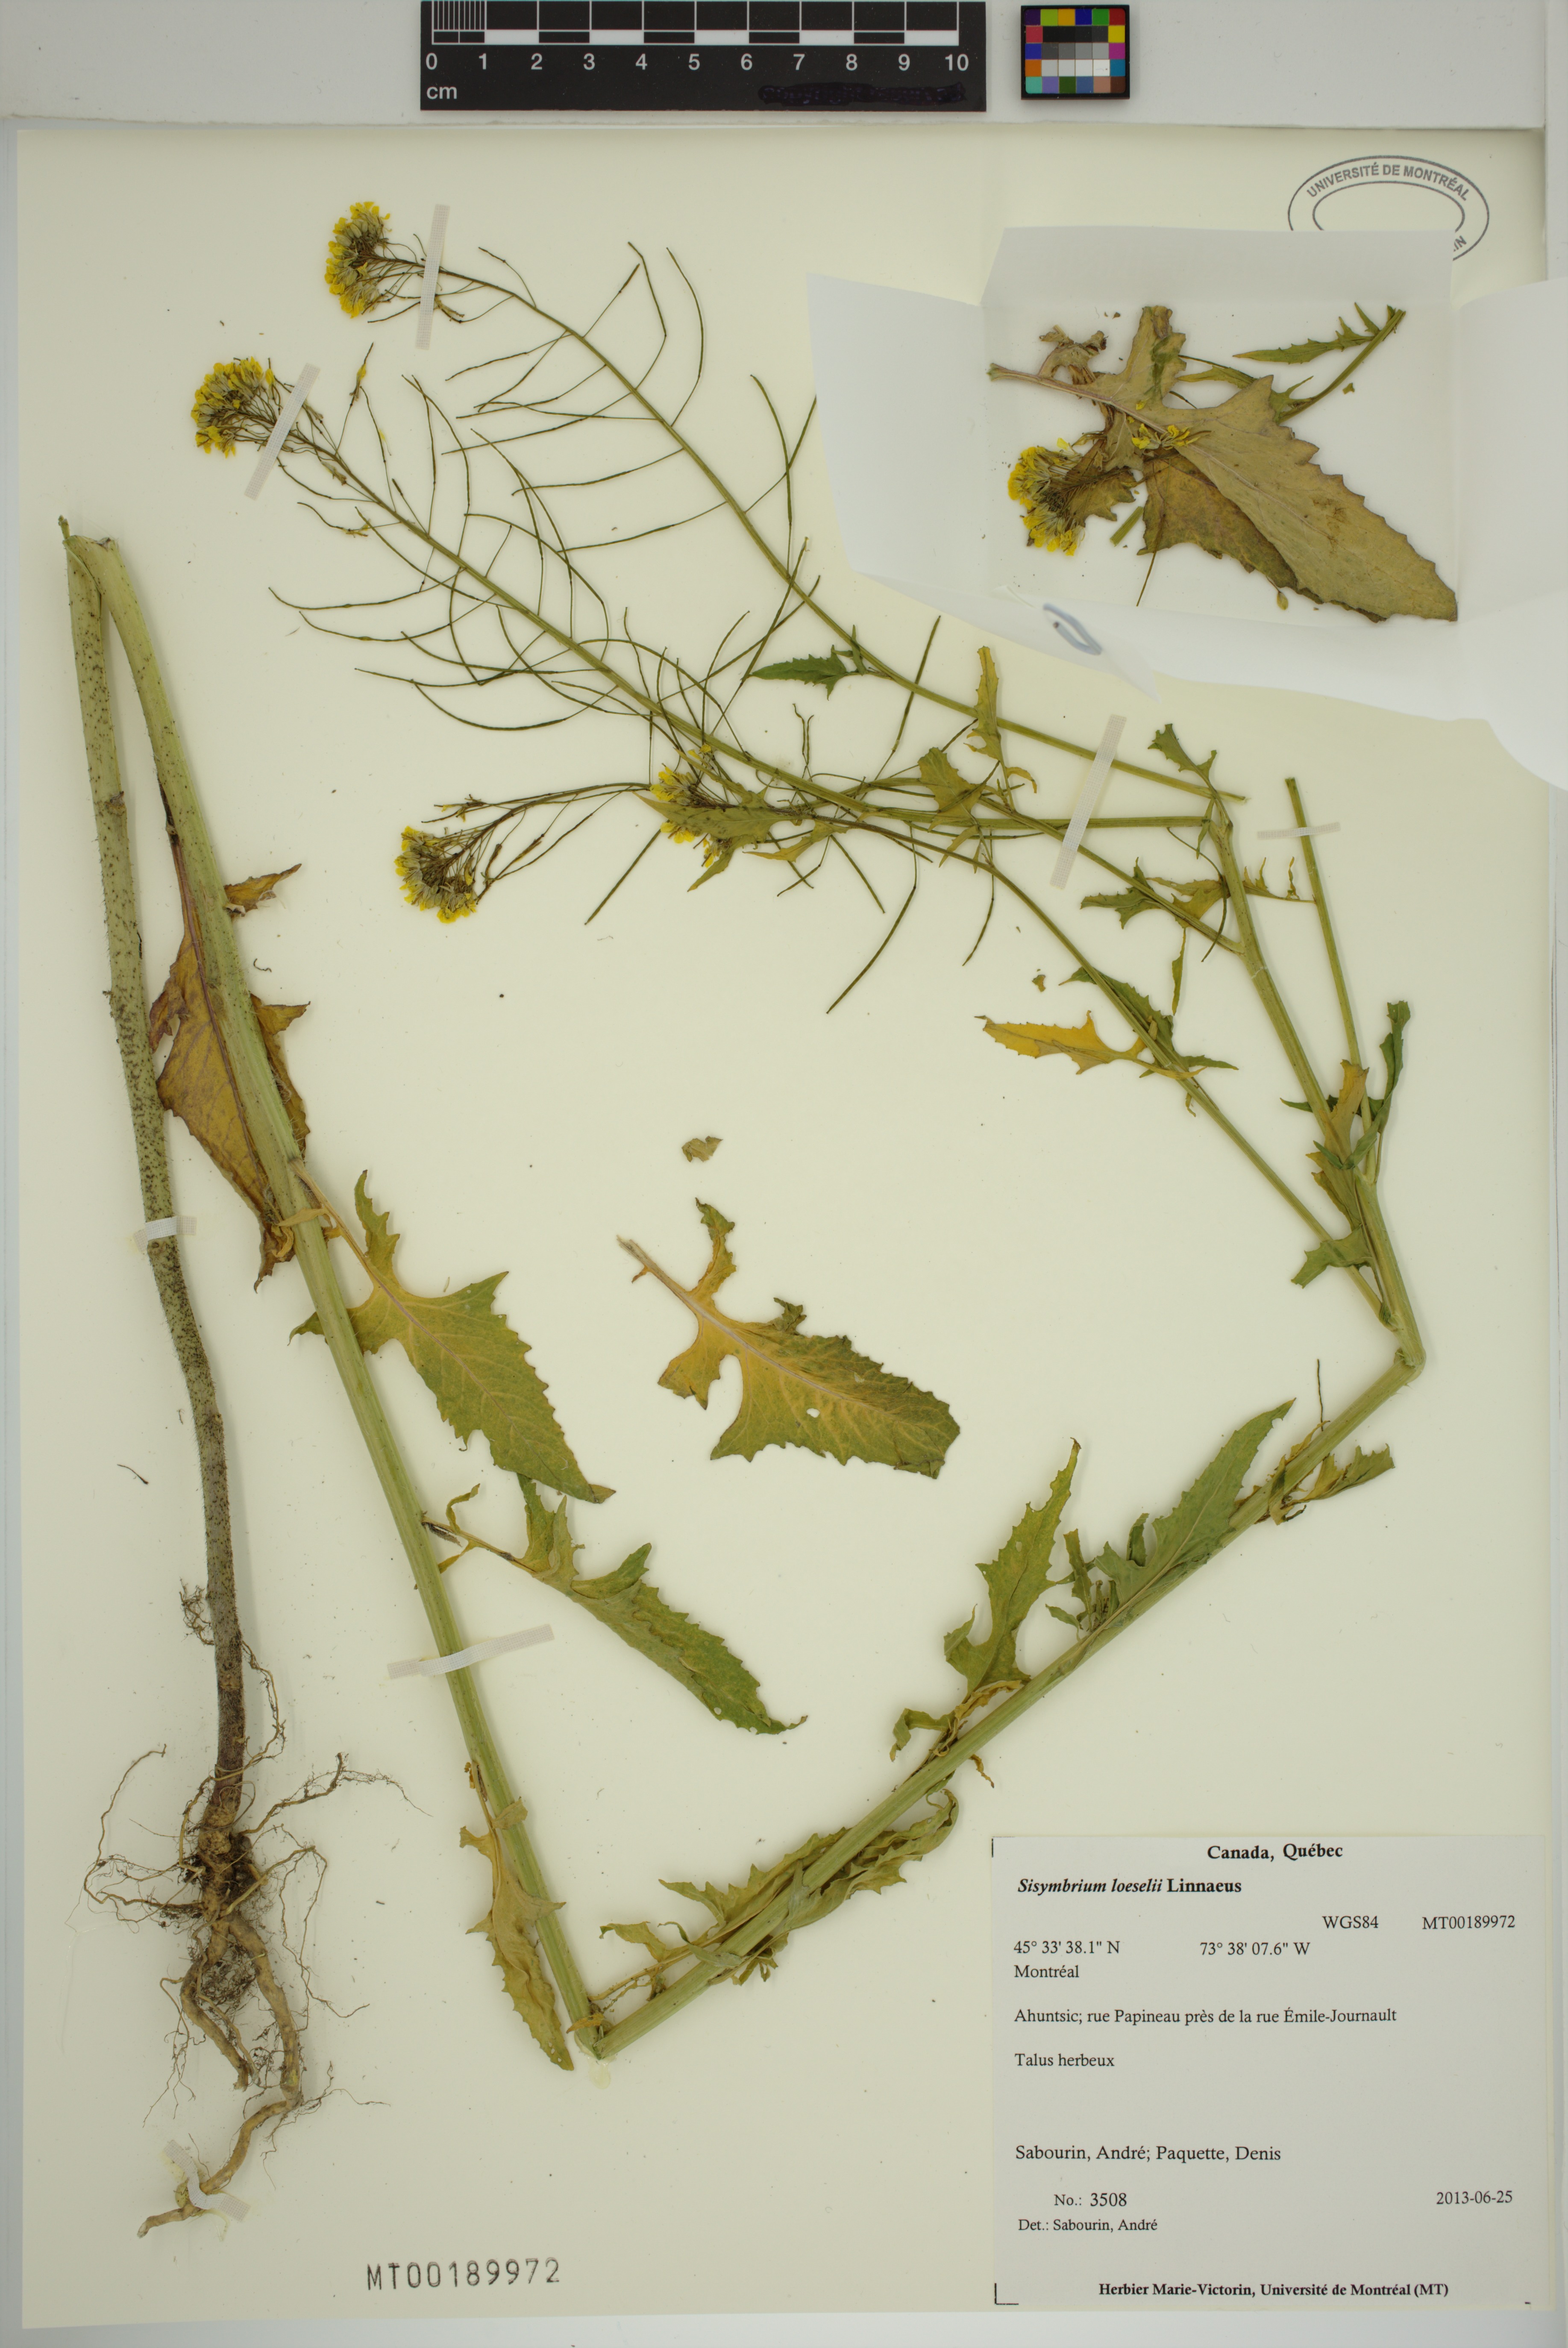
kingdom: Plantae
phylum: Tracheophyta
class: Magnoliopsida
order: Brassicales
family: Brassicaceae
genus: Sisymbrium
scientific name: Sisymbrium loeselii
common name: False london-rocket
